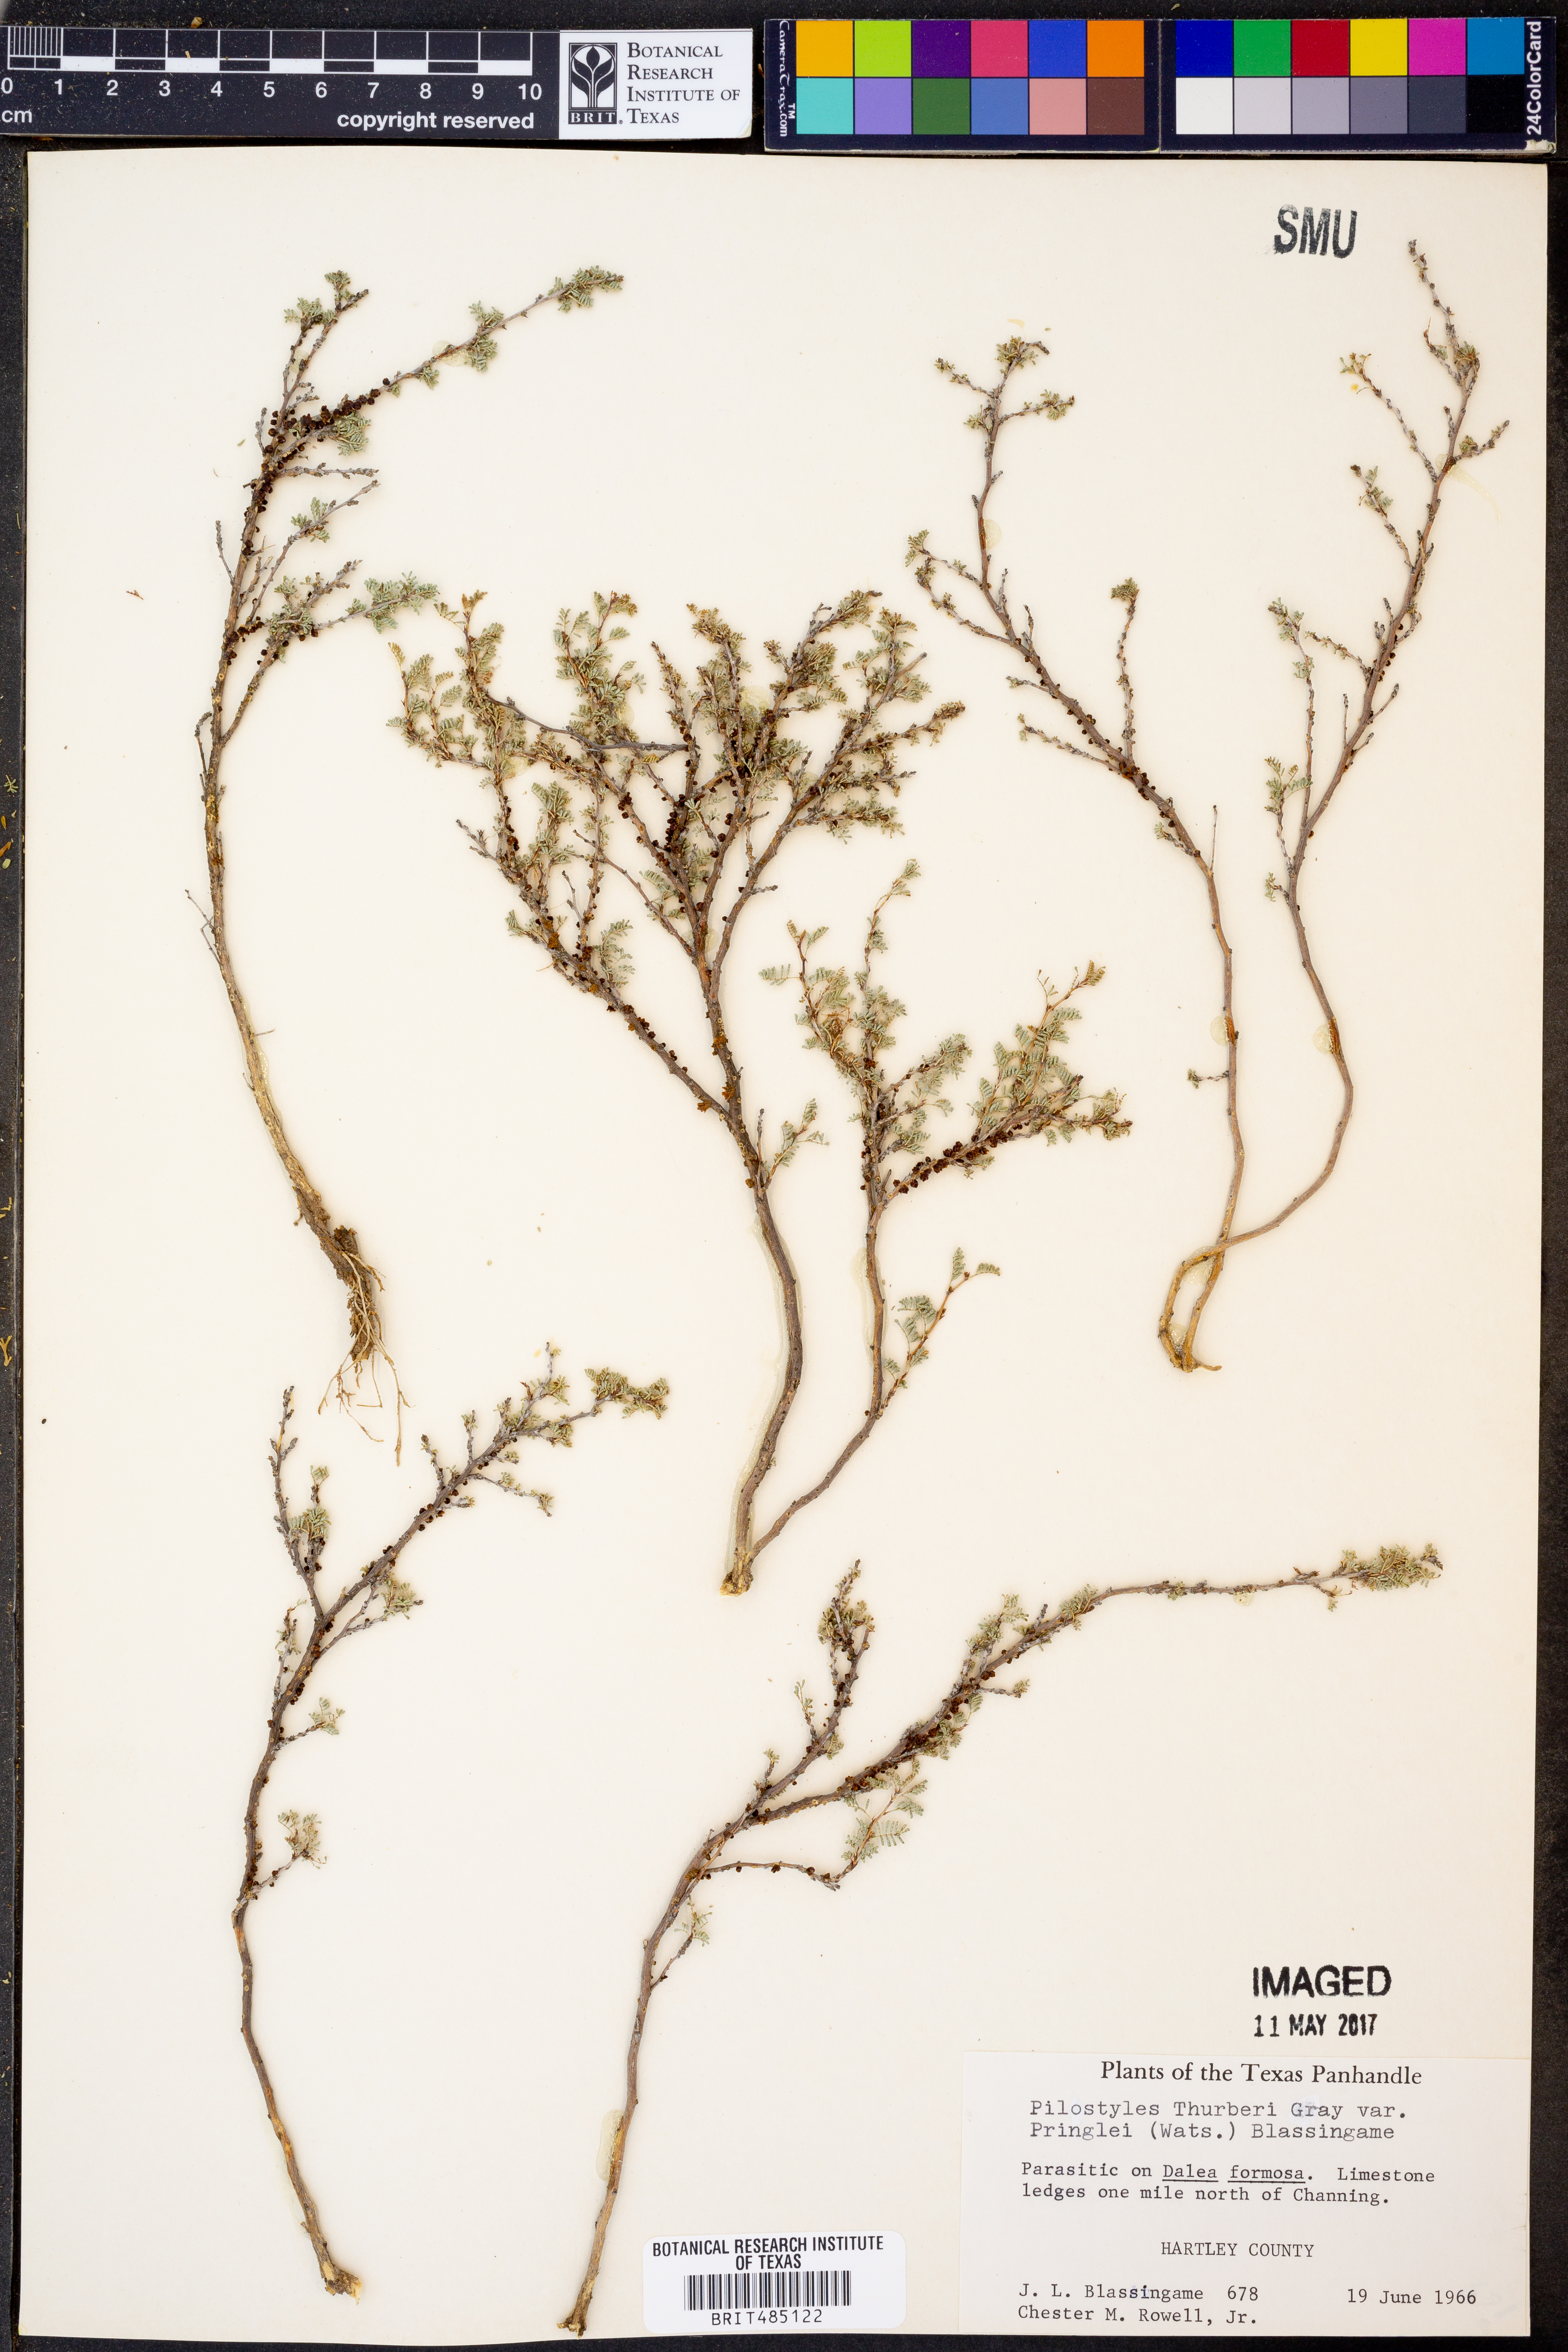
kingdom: Plantae
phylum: Tracheophyta
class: Magnoliopsida
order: Cucurbitales
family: Apodanthaceae
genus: Pilostyles
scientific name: Pilostyles thurberi
